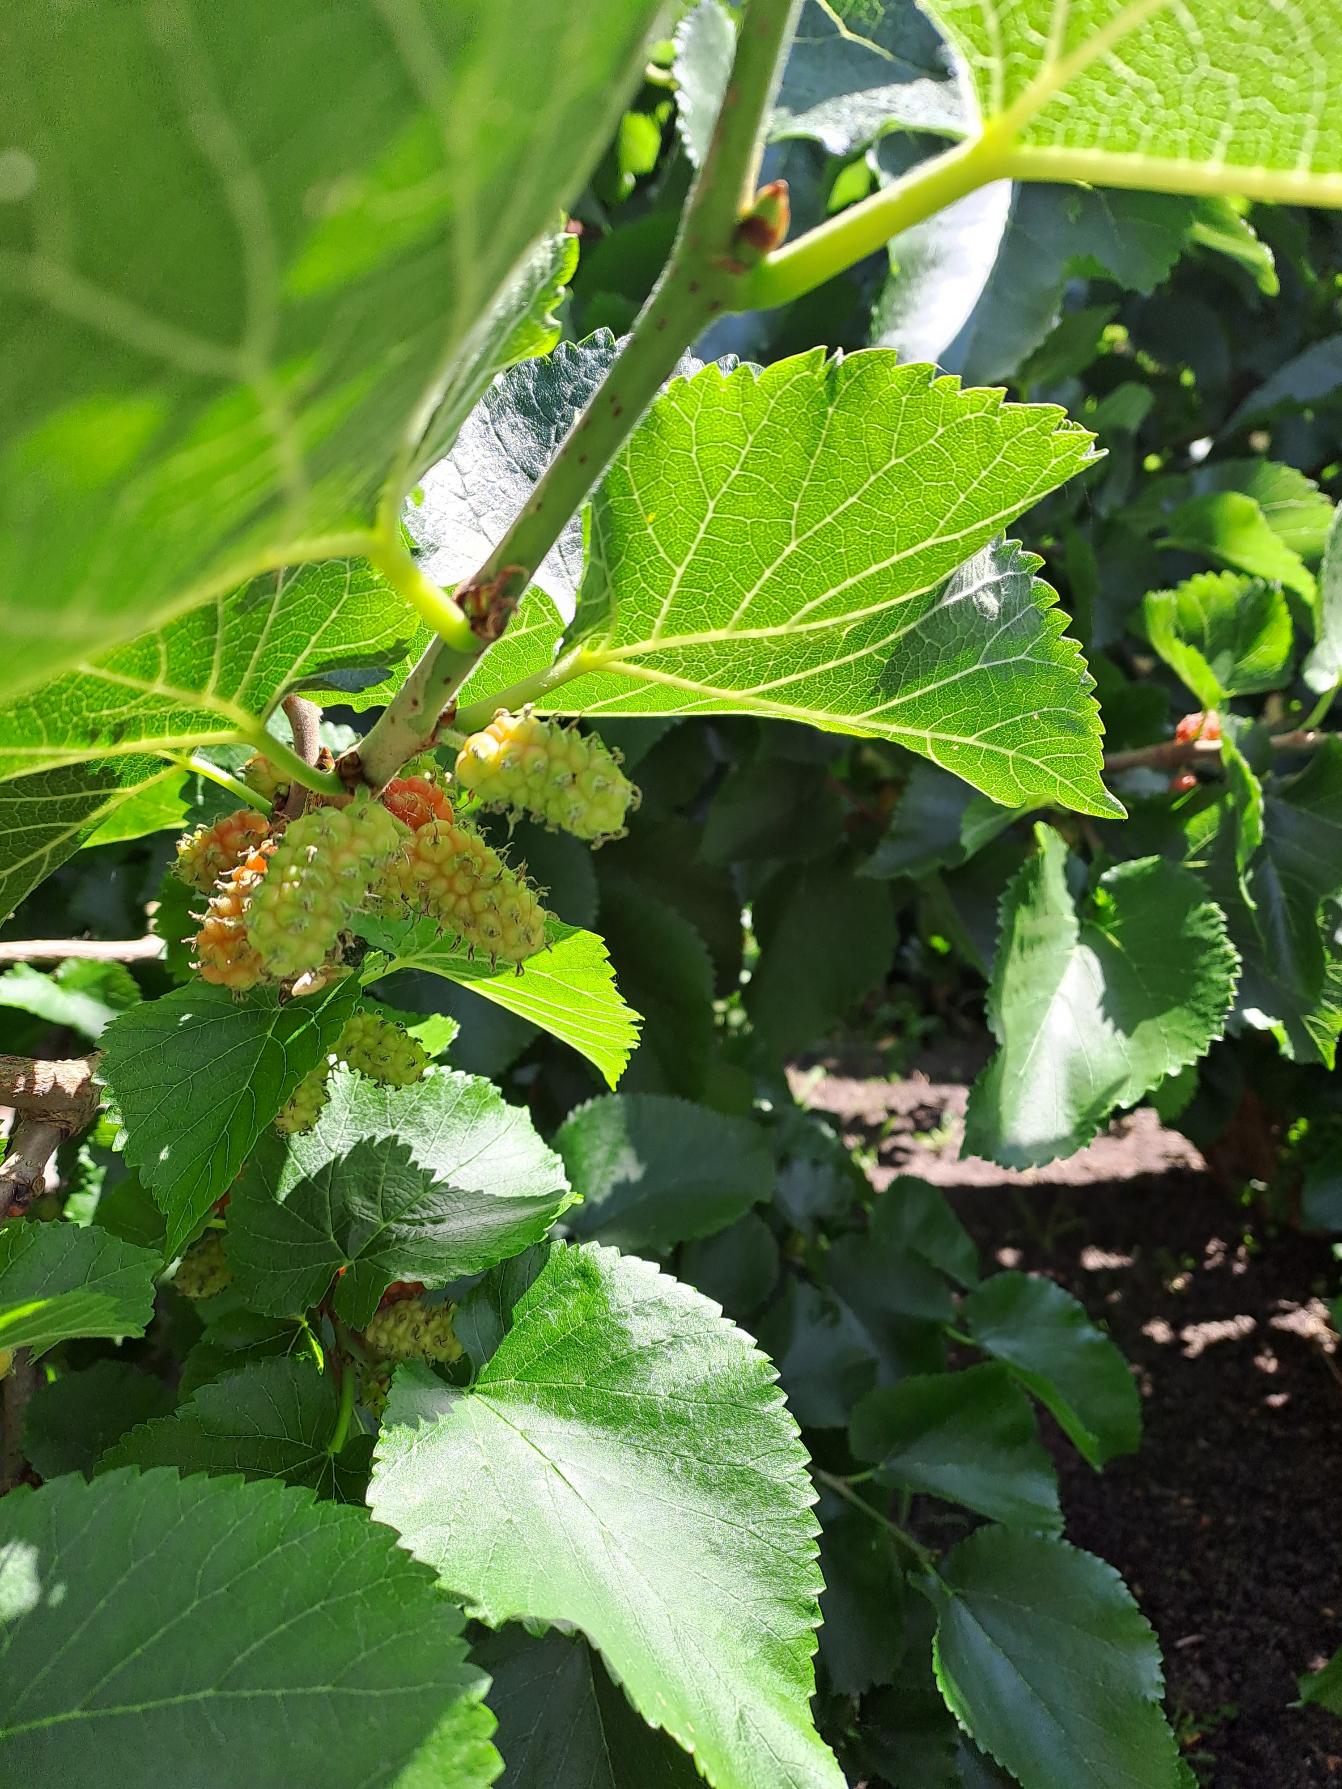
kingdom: Plantae
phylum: Tracheophyta
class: Magnoliopsida
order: Rosales
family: Moraceae
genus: Morus
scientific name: Morus nigra
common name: Sort morbær
